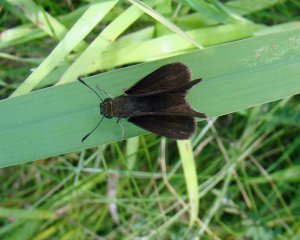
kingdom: Animalia
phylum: Arthropoda
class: Insecta
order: Lepidoptera
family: Hesperiidae
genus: Euphyes
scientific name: Euphyes vestris
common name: Dun Skipper
